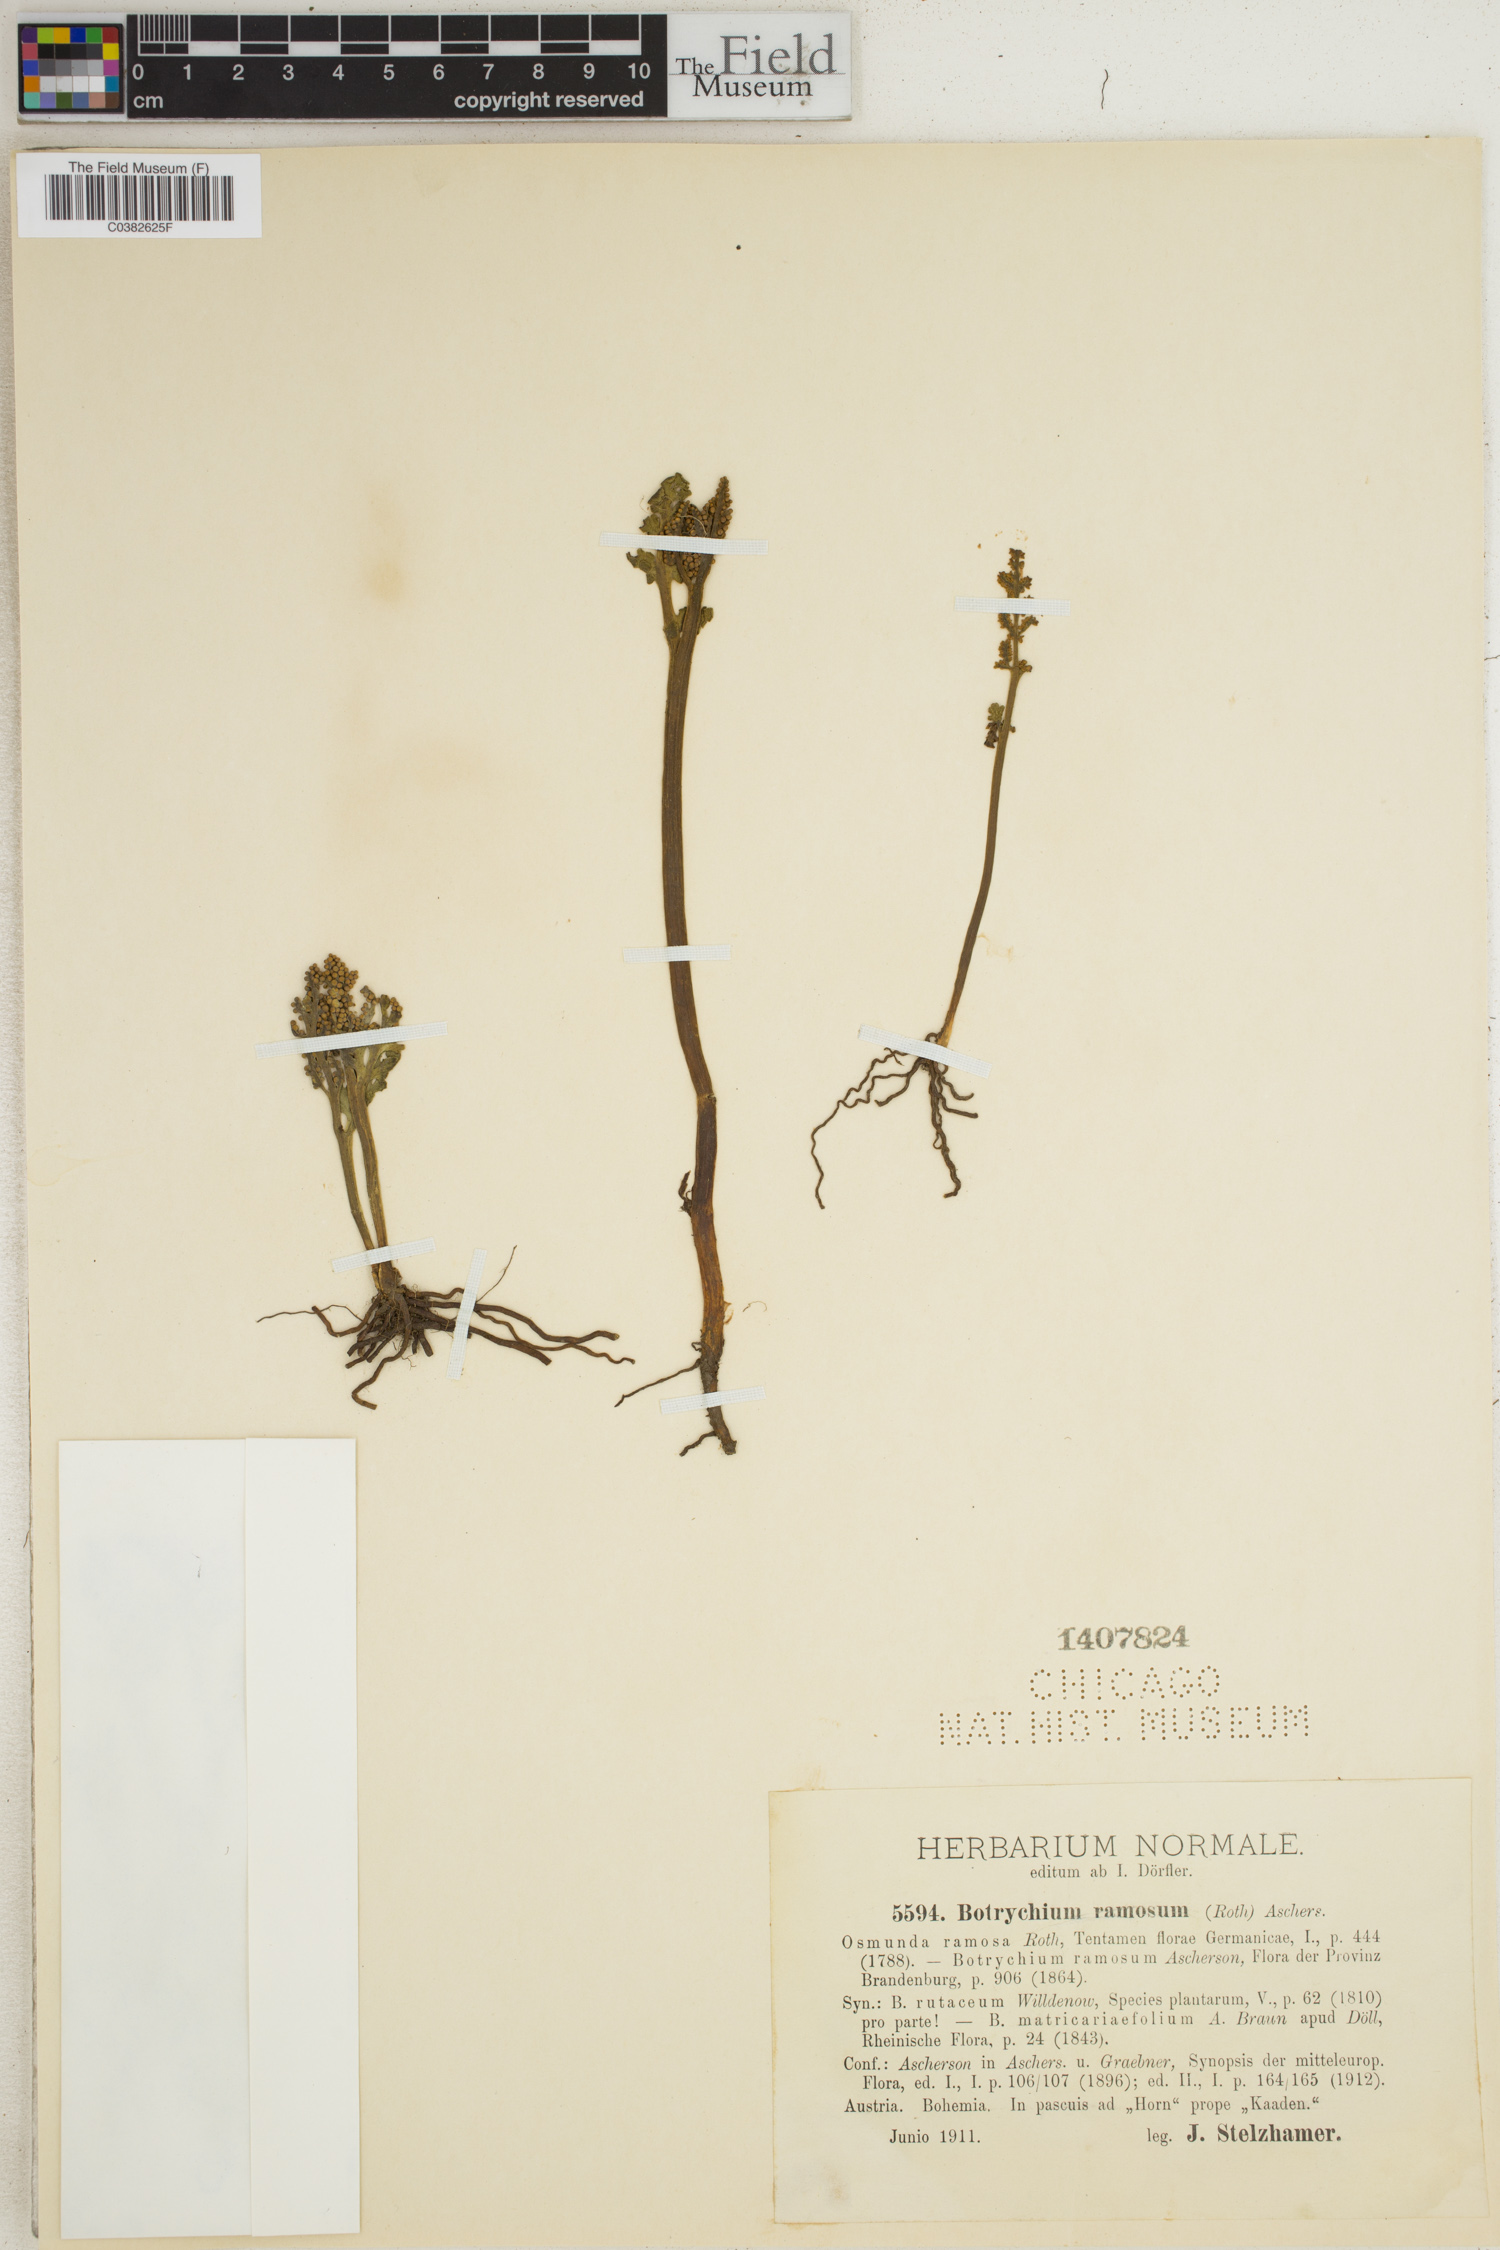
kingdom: Plantae
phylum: Tracheophyta
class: Polypodiopsida
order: Ophioglossales
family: Ophioglossaceae
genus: Botrychium
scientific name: Botrychium dusenii
